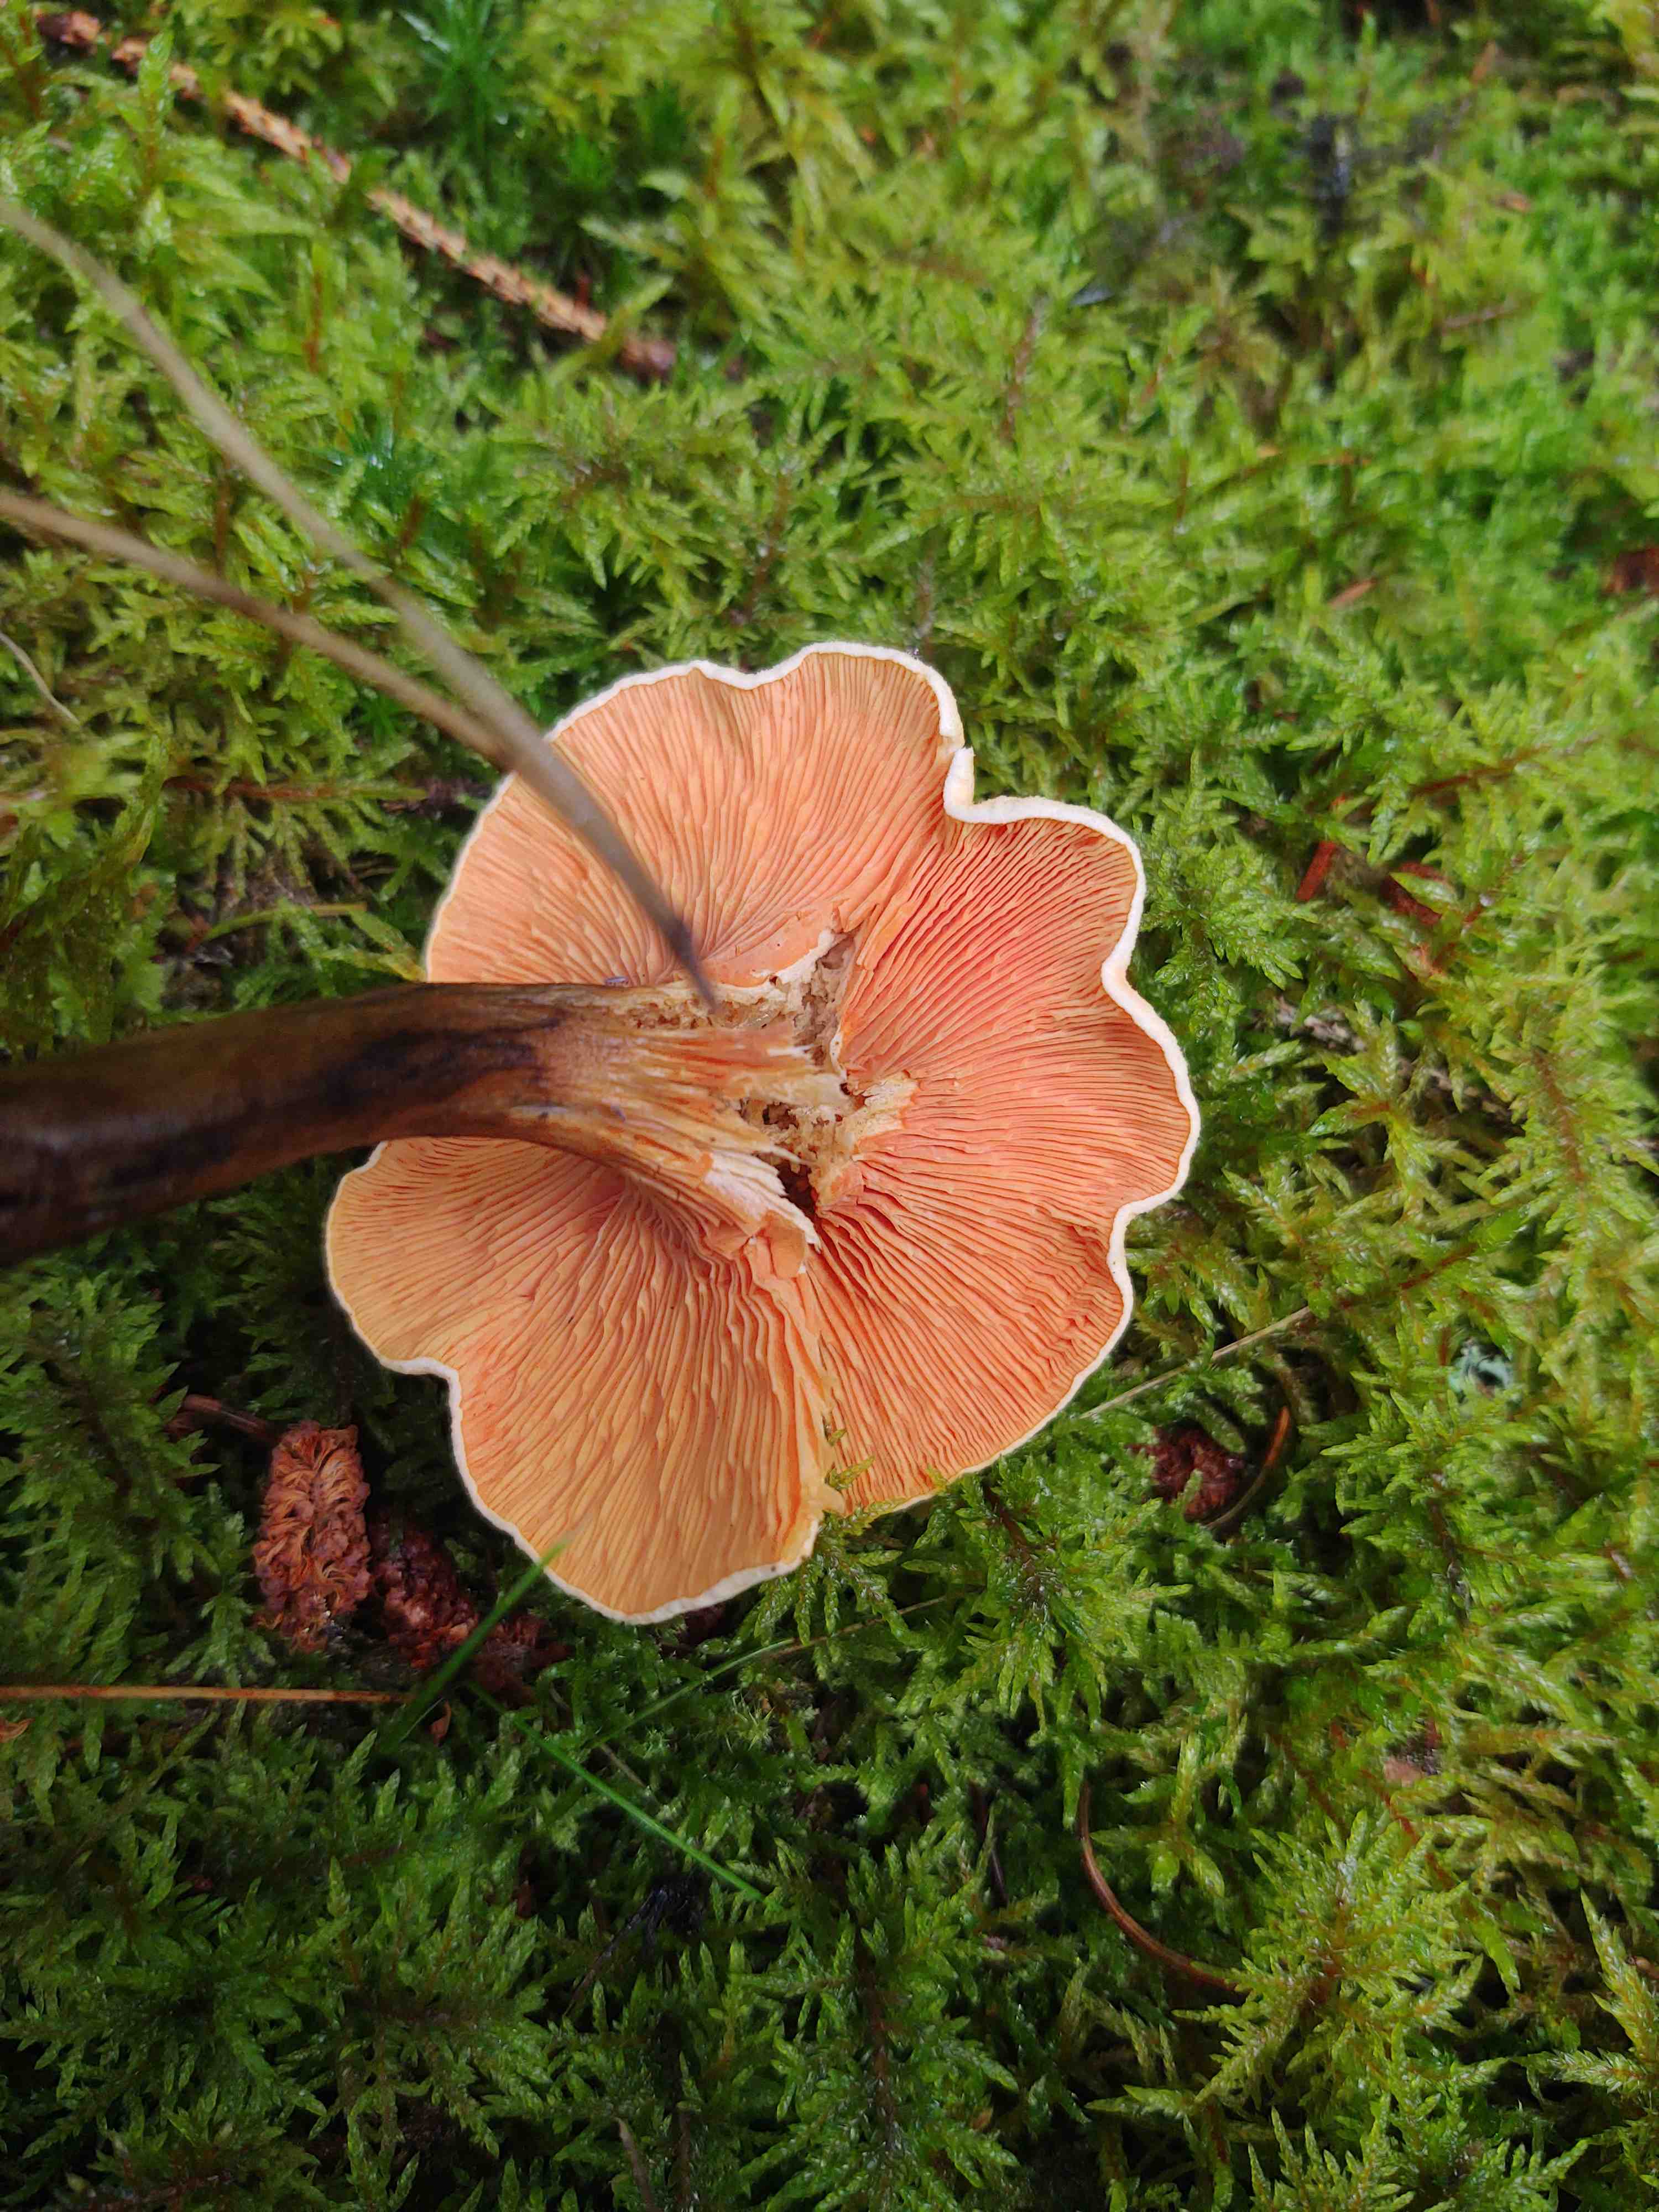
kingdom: Fungi
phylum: Basidiomycota
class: Agaricomycetes
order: Boletales
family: Hygrophoropsidaceae
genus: Hygrophoropsis
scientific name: Hygrophoropsis aurantiaca
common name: almindelig orangekantarel
